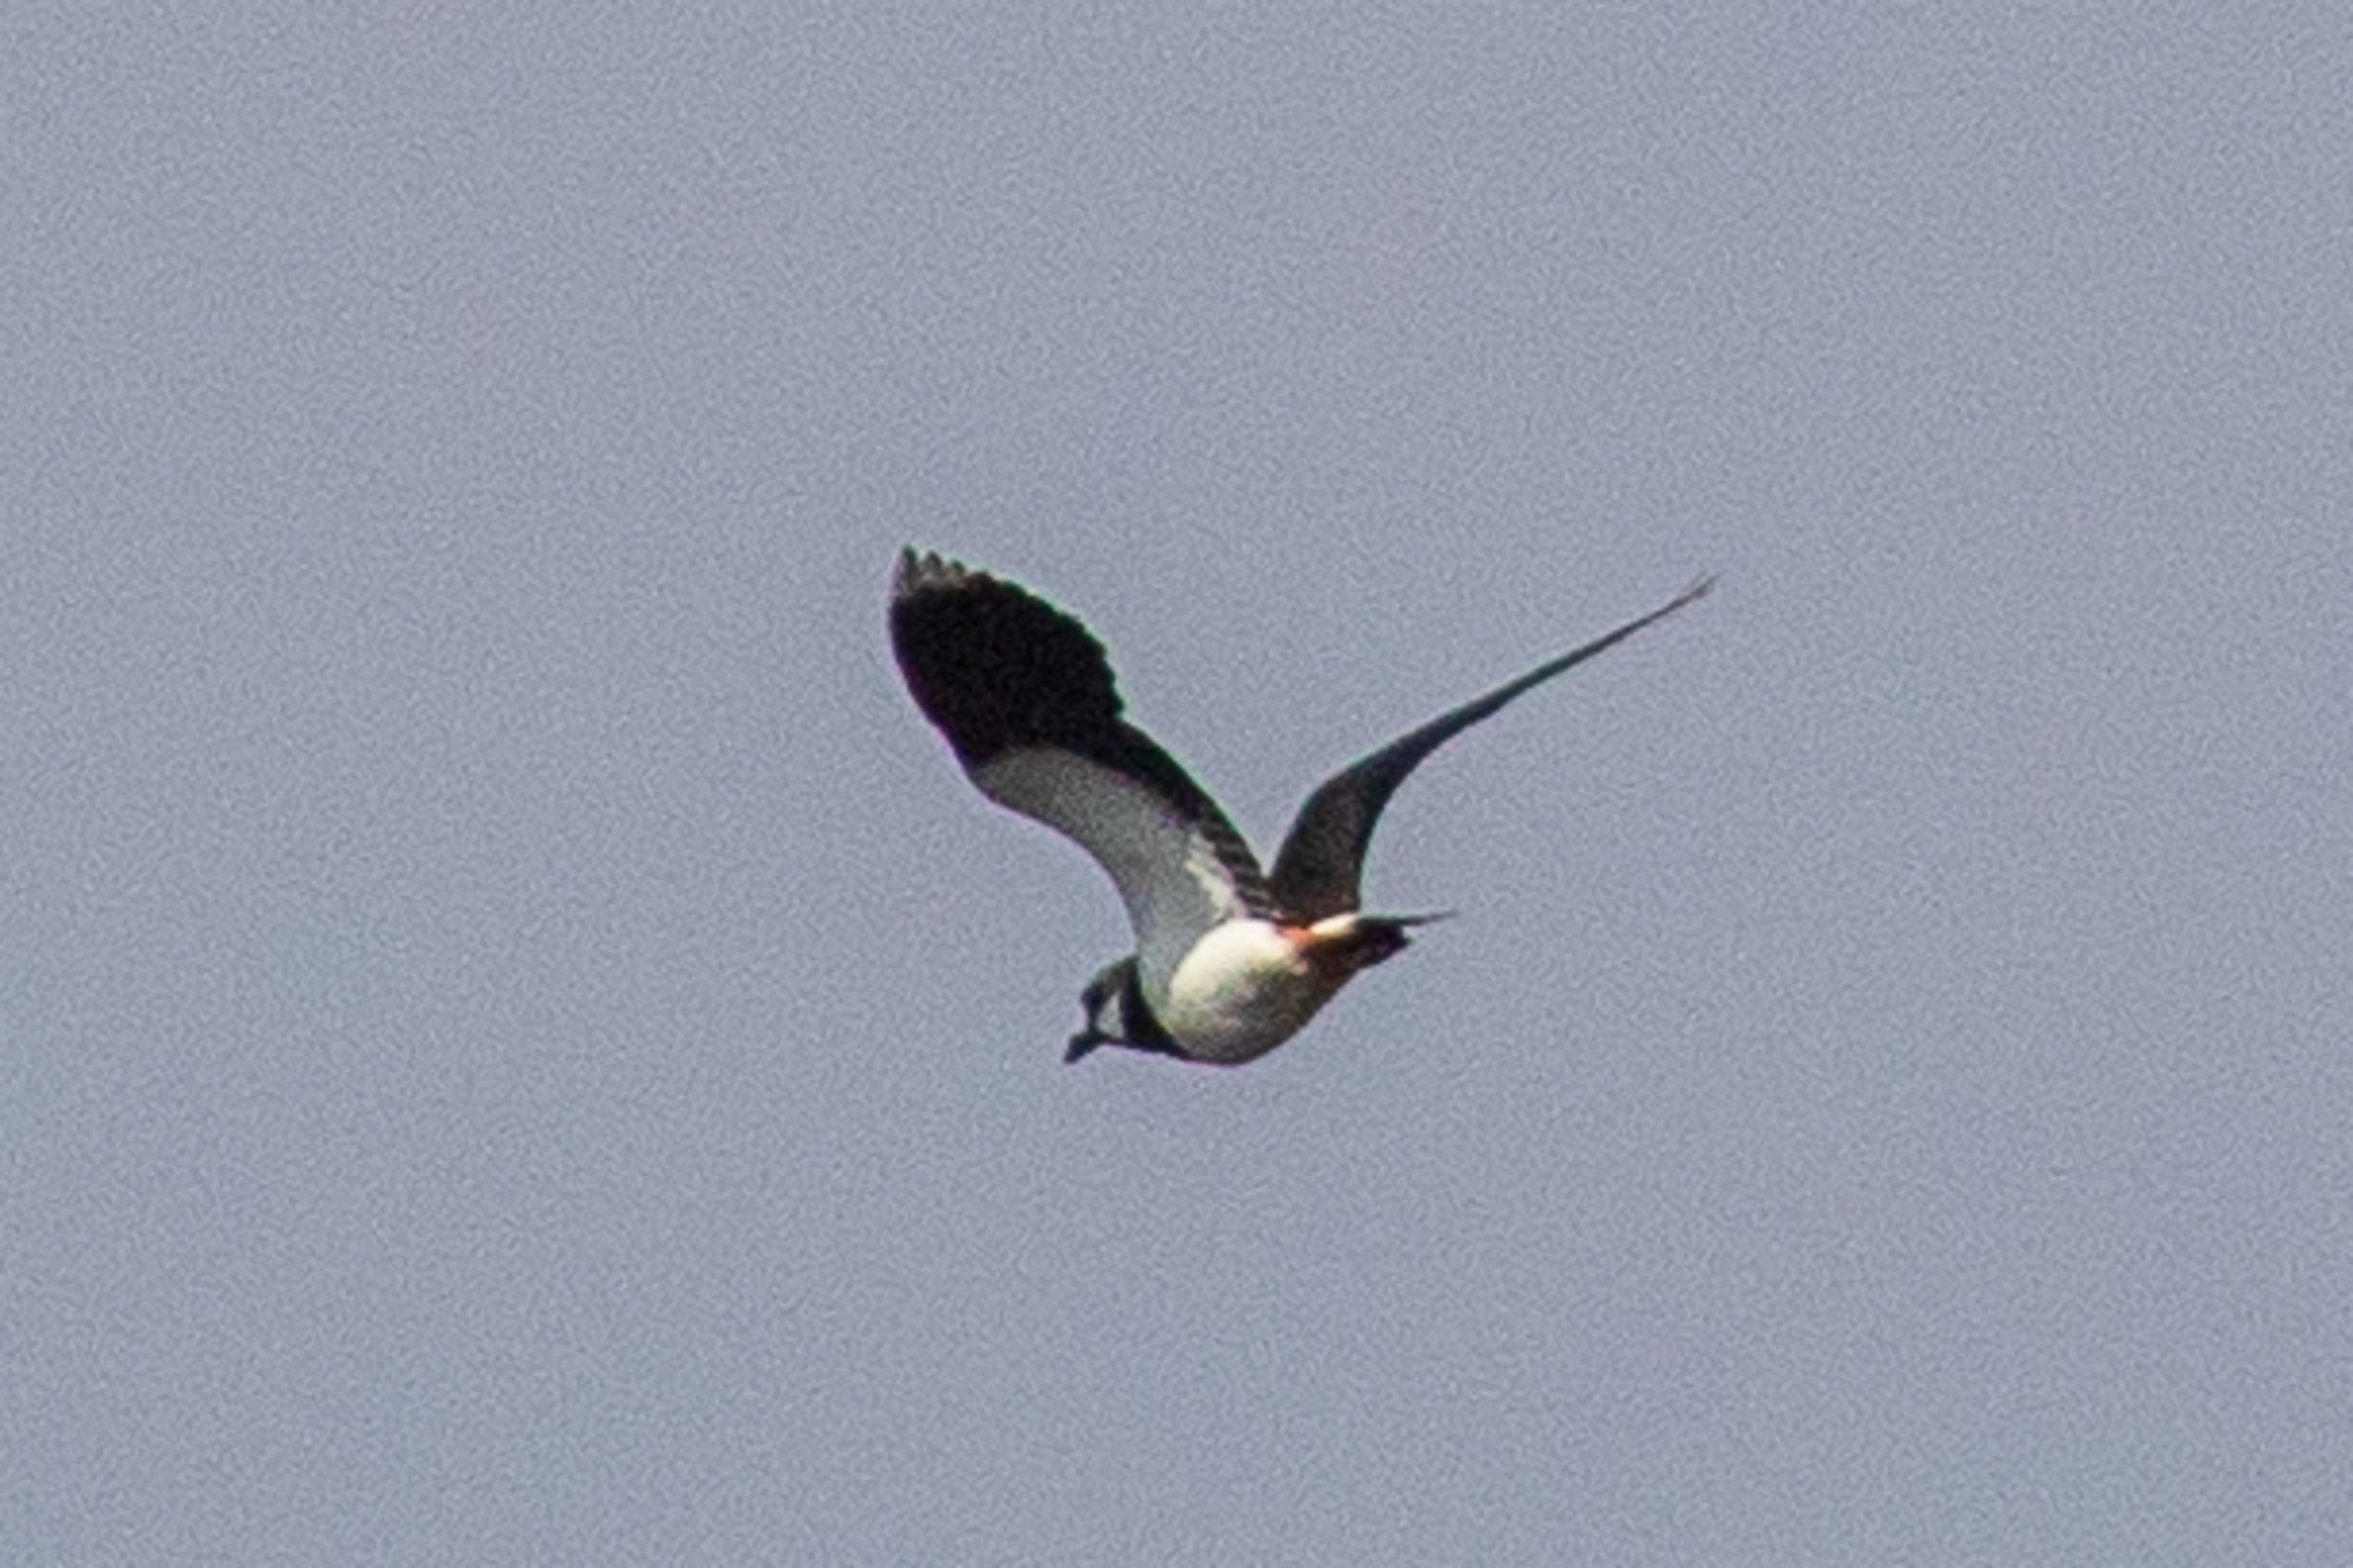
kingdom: Animalia
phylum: Chordata
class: Aves
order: Charadriiformes
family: Charadriidae
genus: Vanellus
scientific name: Vanellus vanellus
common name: Vibe
